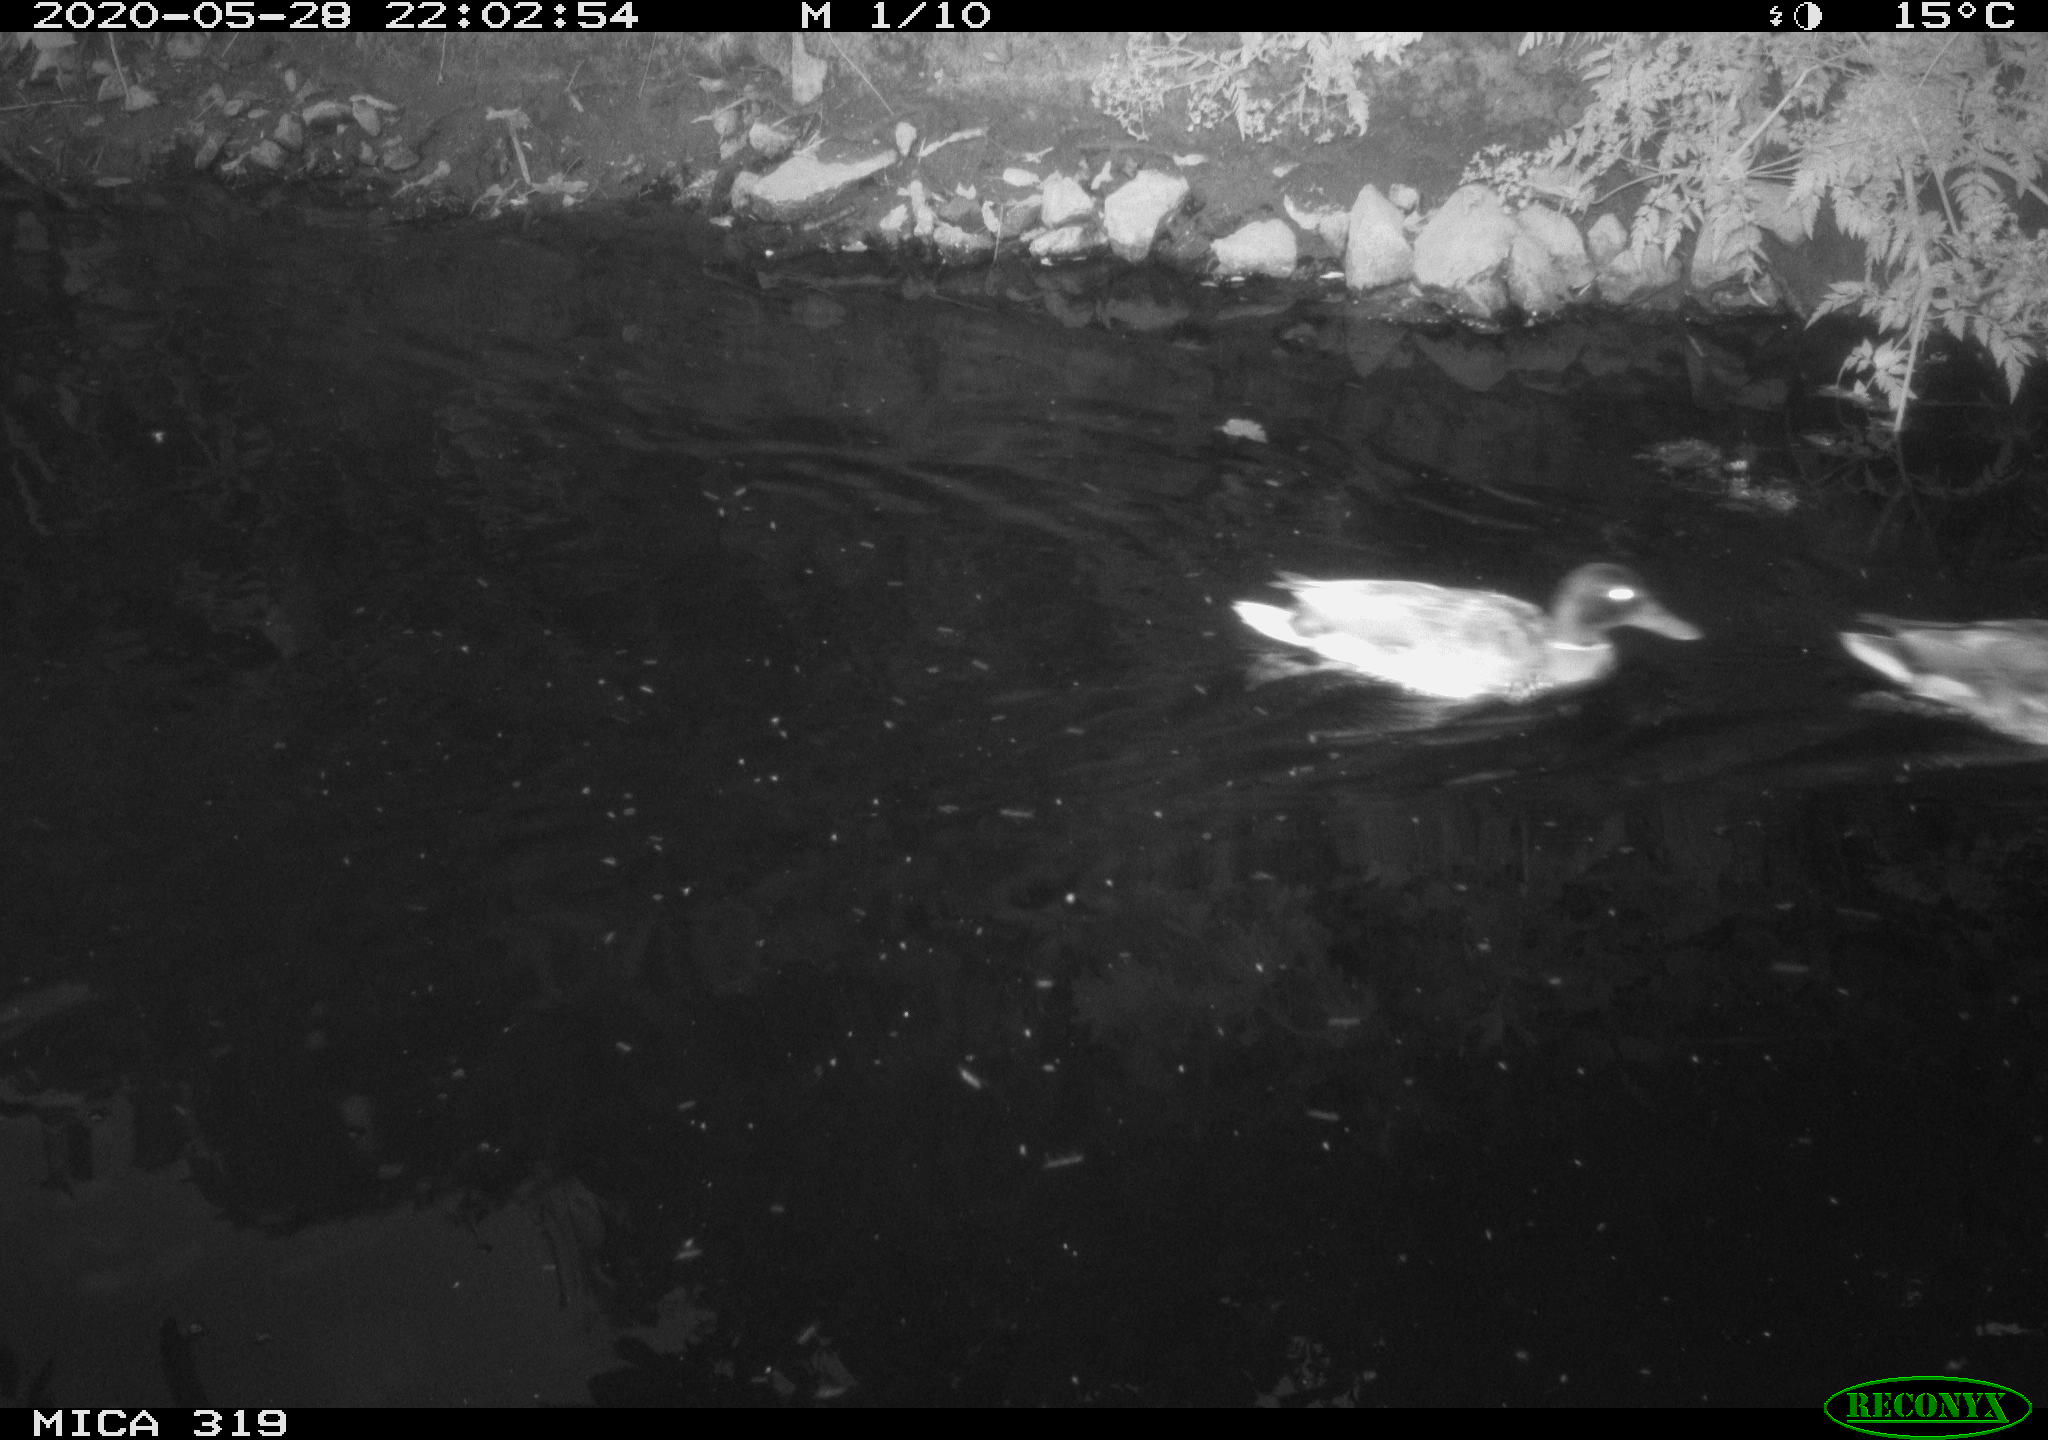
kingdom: Animalia
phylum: Chordata
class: Aves
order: Anseriformes
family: Anatidae
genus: Anas
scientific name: Anas platyrhynchos
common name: Mallard
